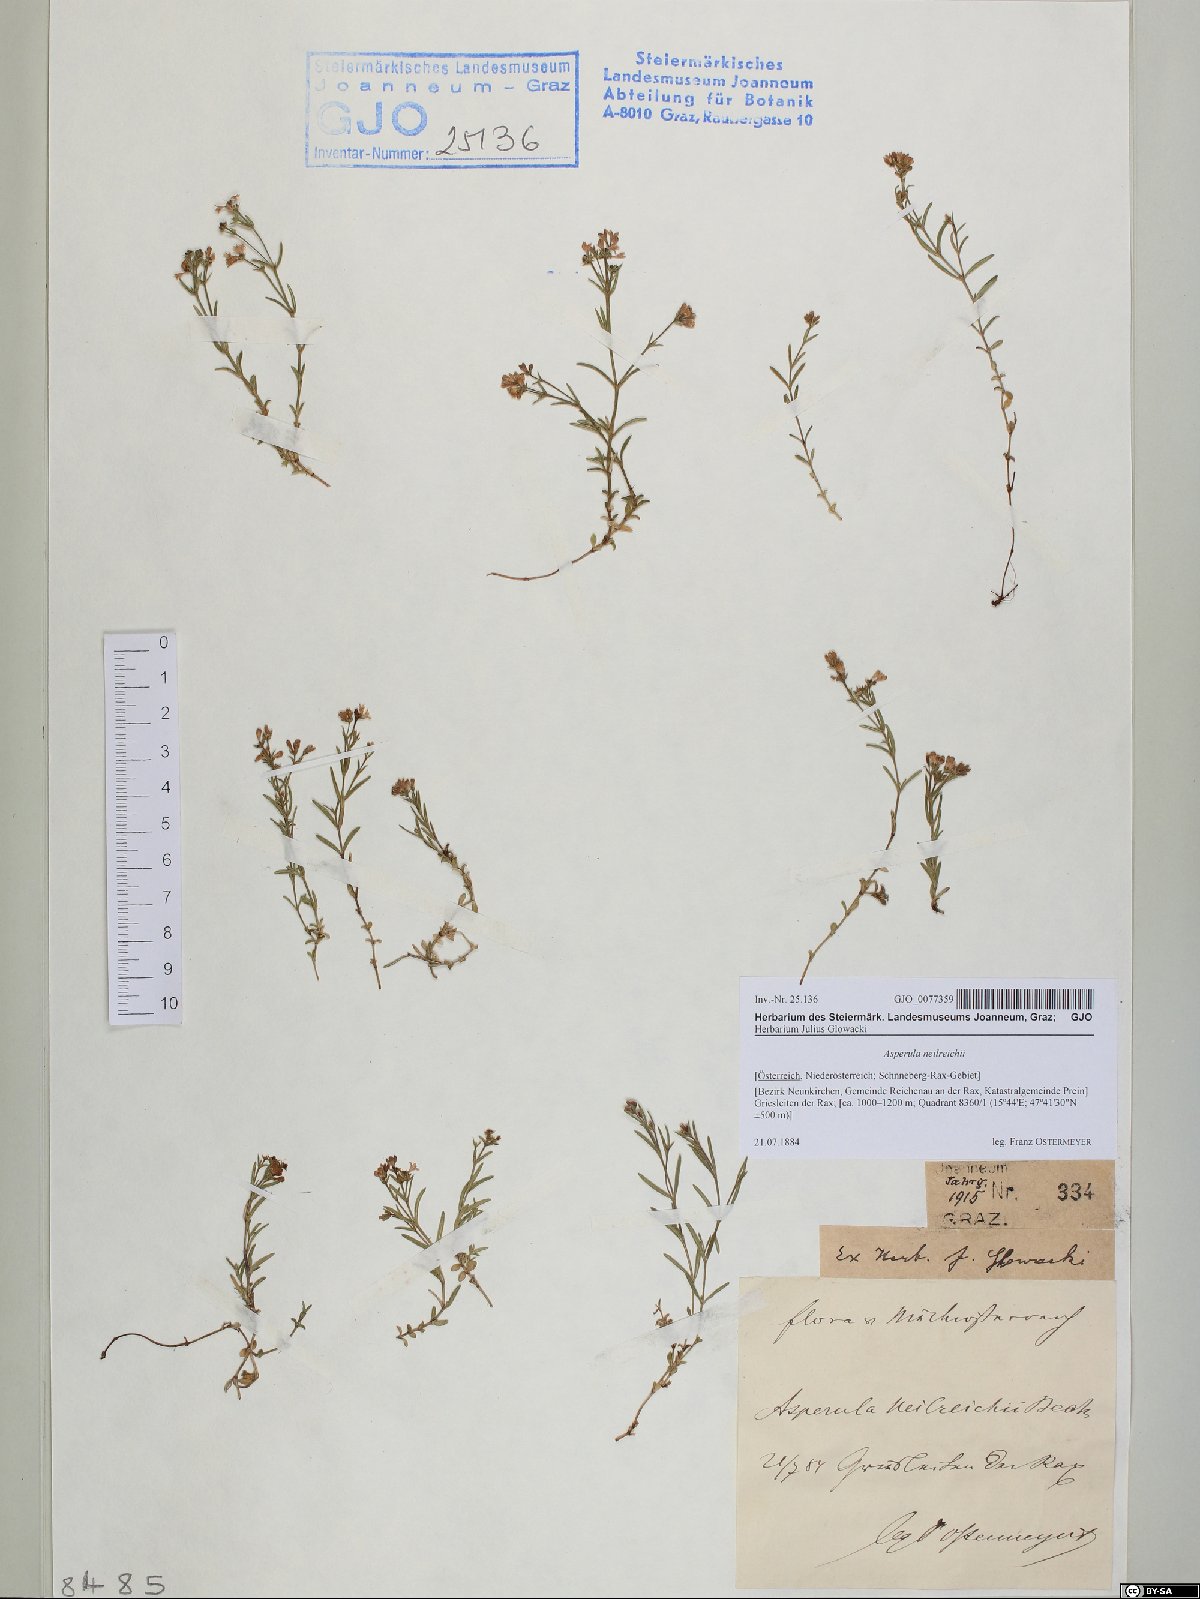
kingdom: Plantae
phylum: Tracheophyta
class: Magnoliopsida
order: Gentianales
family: Rubiaceae
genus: Cynanchica
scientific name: Cynanchica neilreichii
